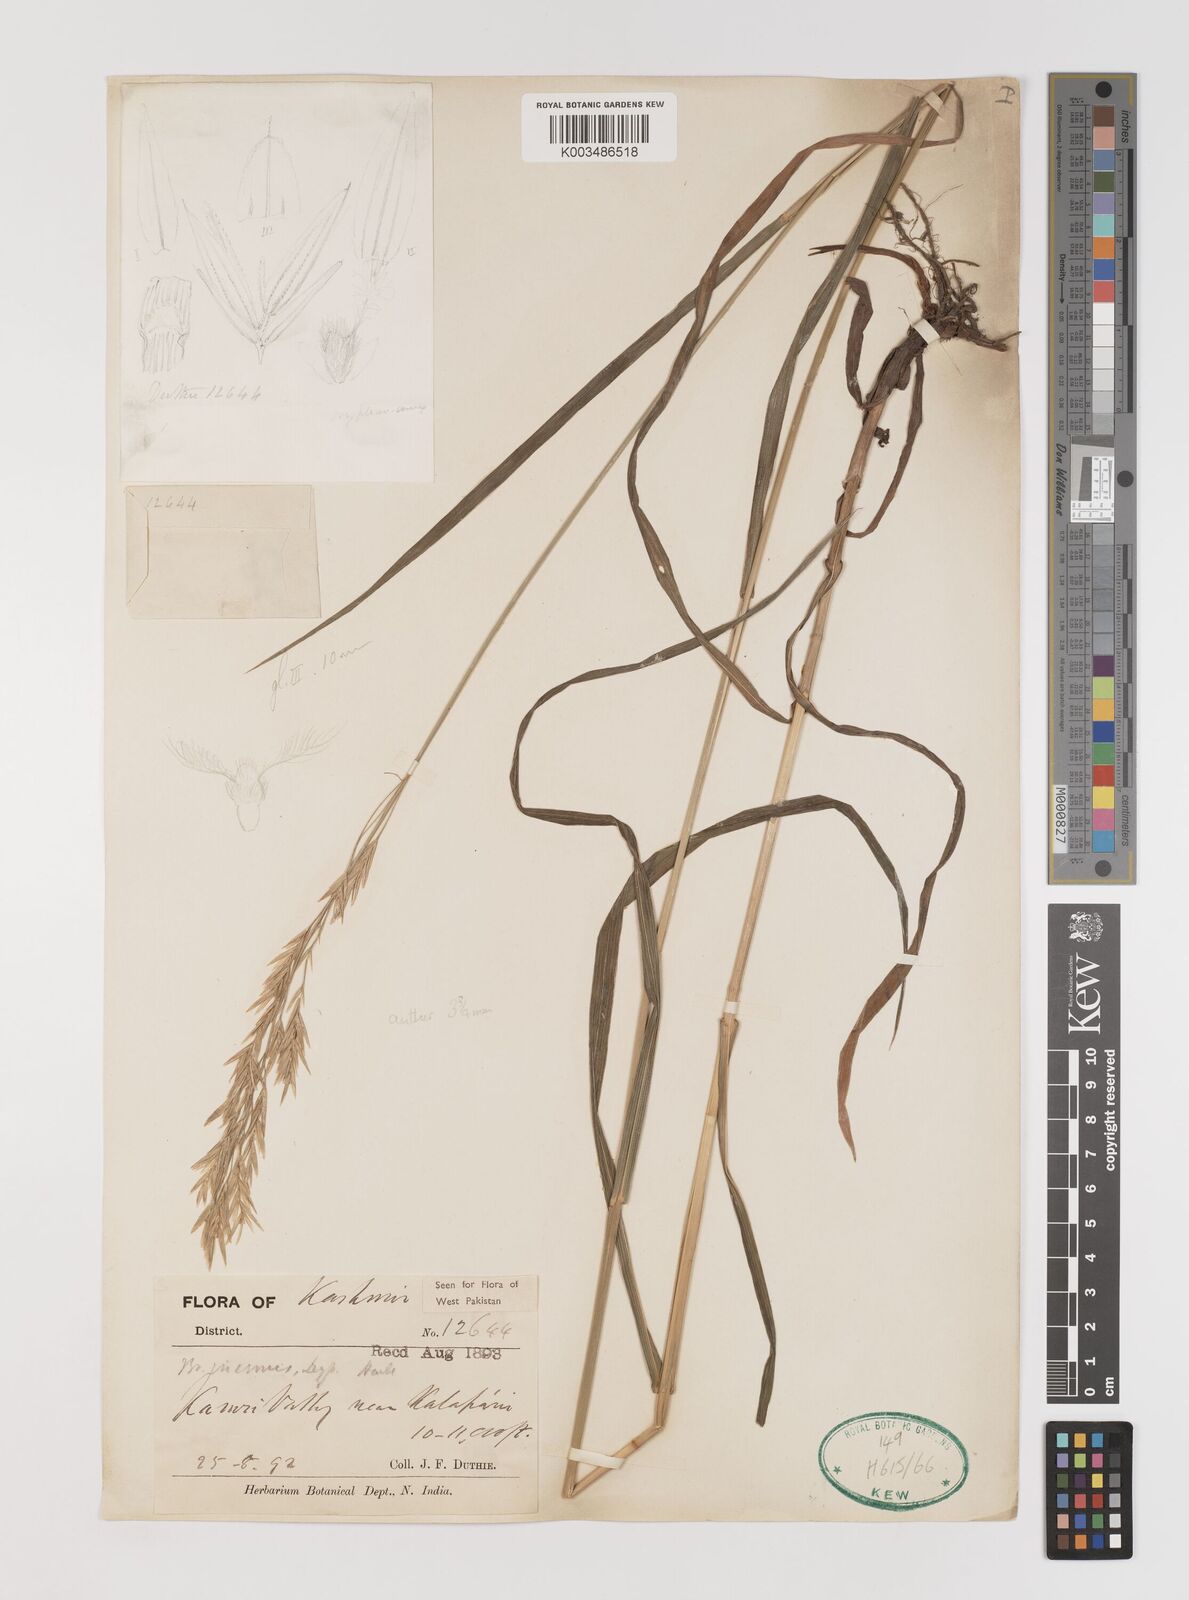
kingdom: Plantae
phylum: Tracheophyta
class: Liliopsida
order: Poales
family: Poaceae
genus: Bromus
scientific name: Bromus inermis
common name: Smooth brome
